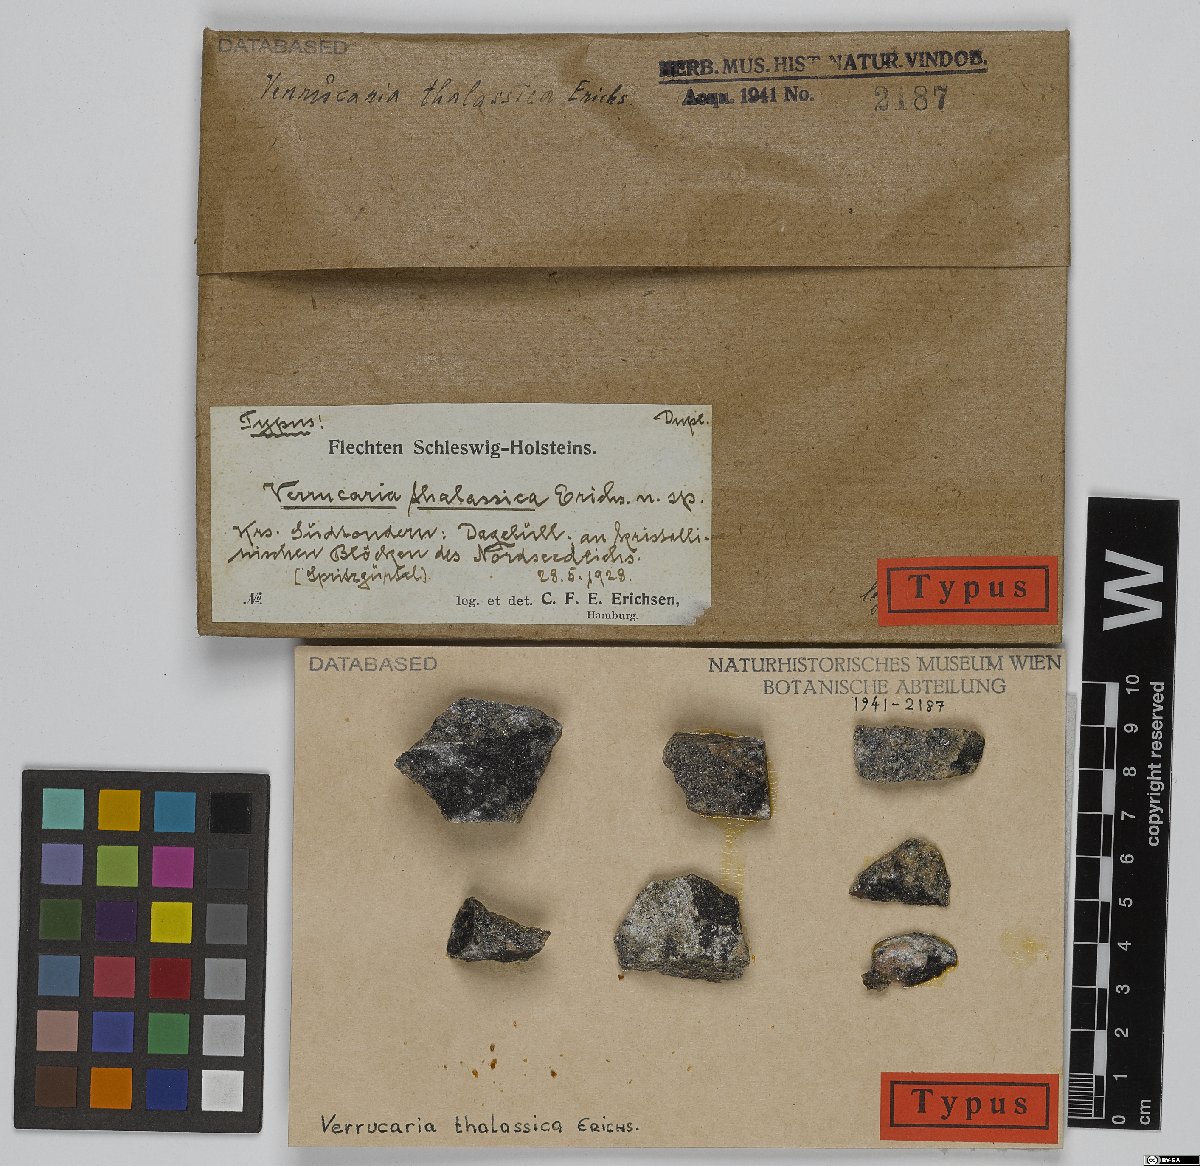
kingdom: Fungi
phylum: Ascomycota
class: Eurotiomycetes
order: Verrucariales
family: Verrucariaceae
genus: Verrucaria
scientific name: Verrucaria thalassina
